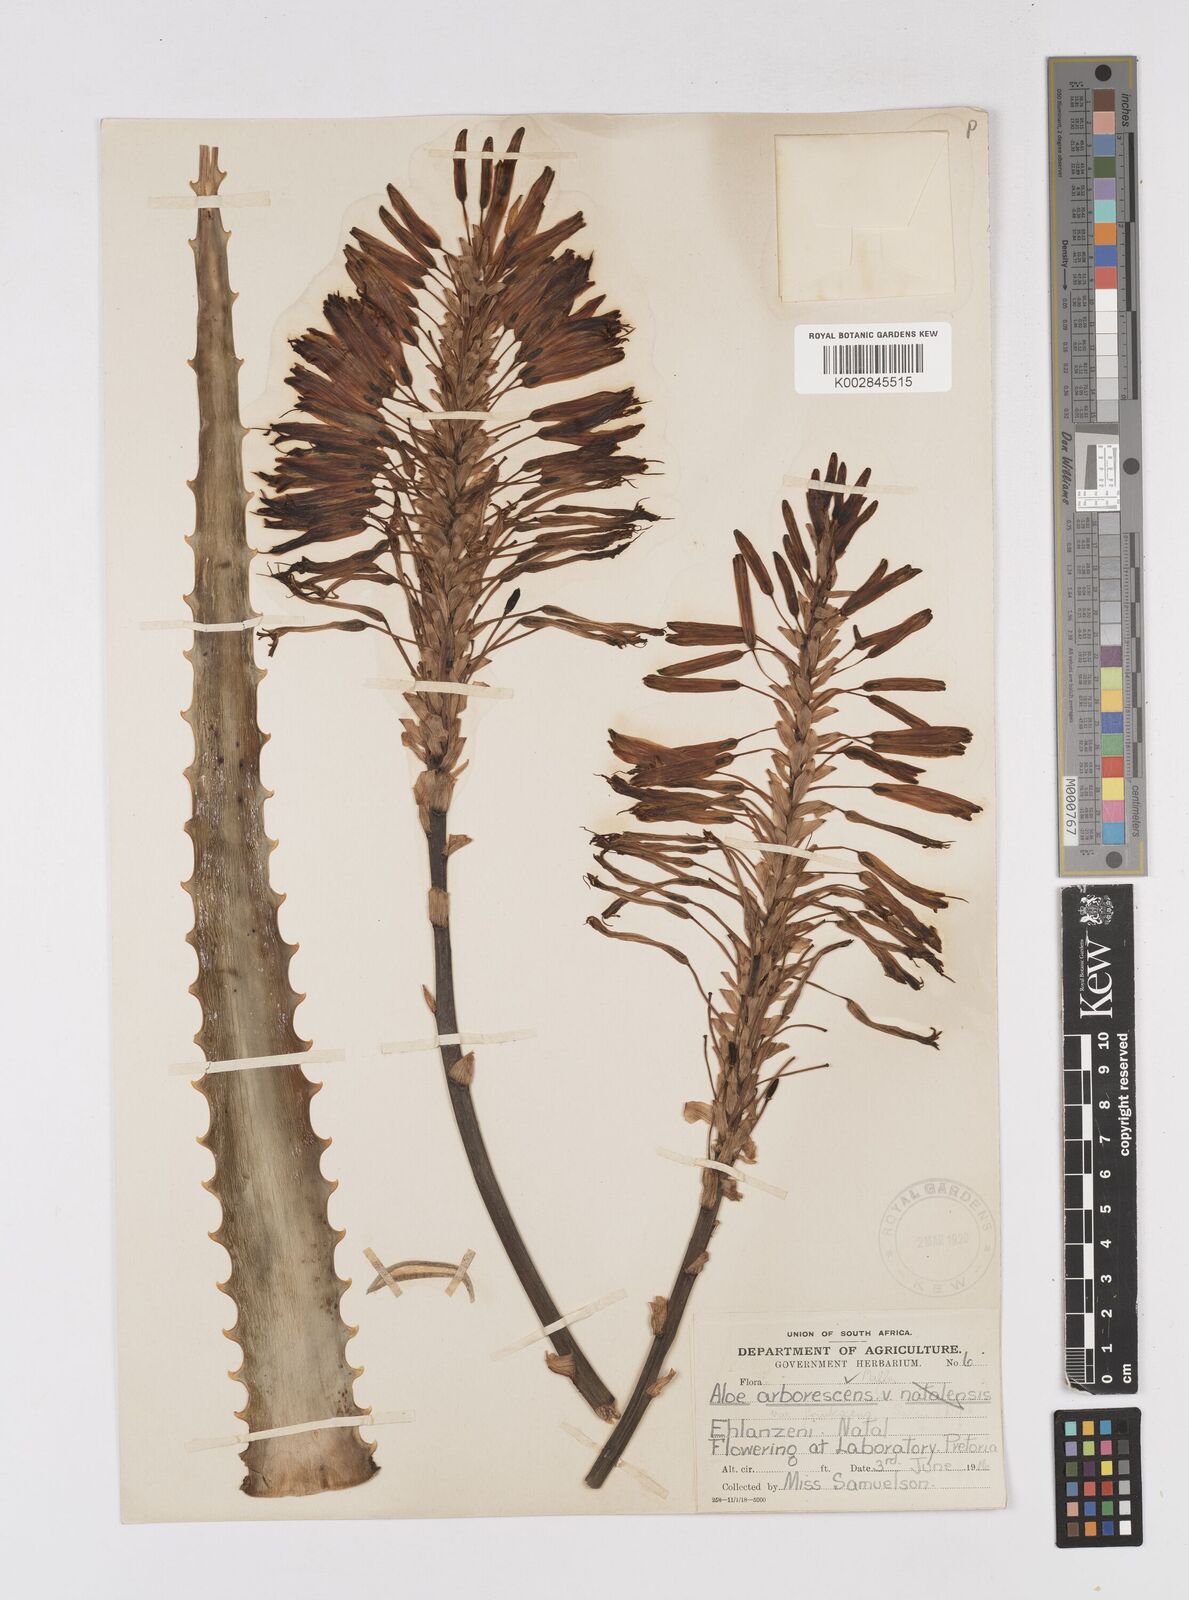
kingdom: Plantae
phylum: Tracheophyta
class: Liliopsida
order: Asparagales
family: Asphodelaceae
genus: Aloe
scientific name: Aloe arborescens
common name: Candelabra aloe
